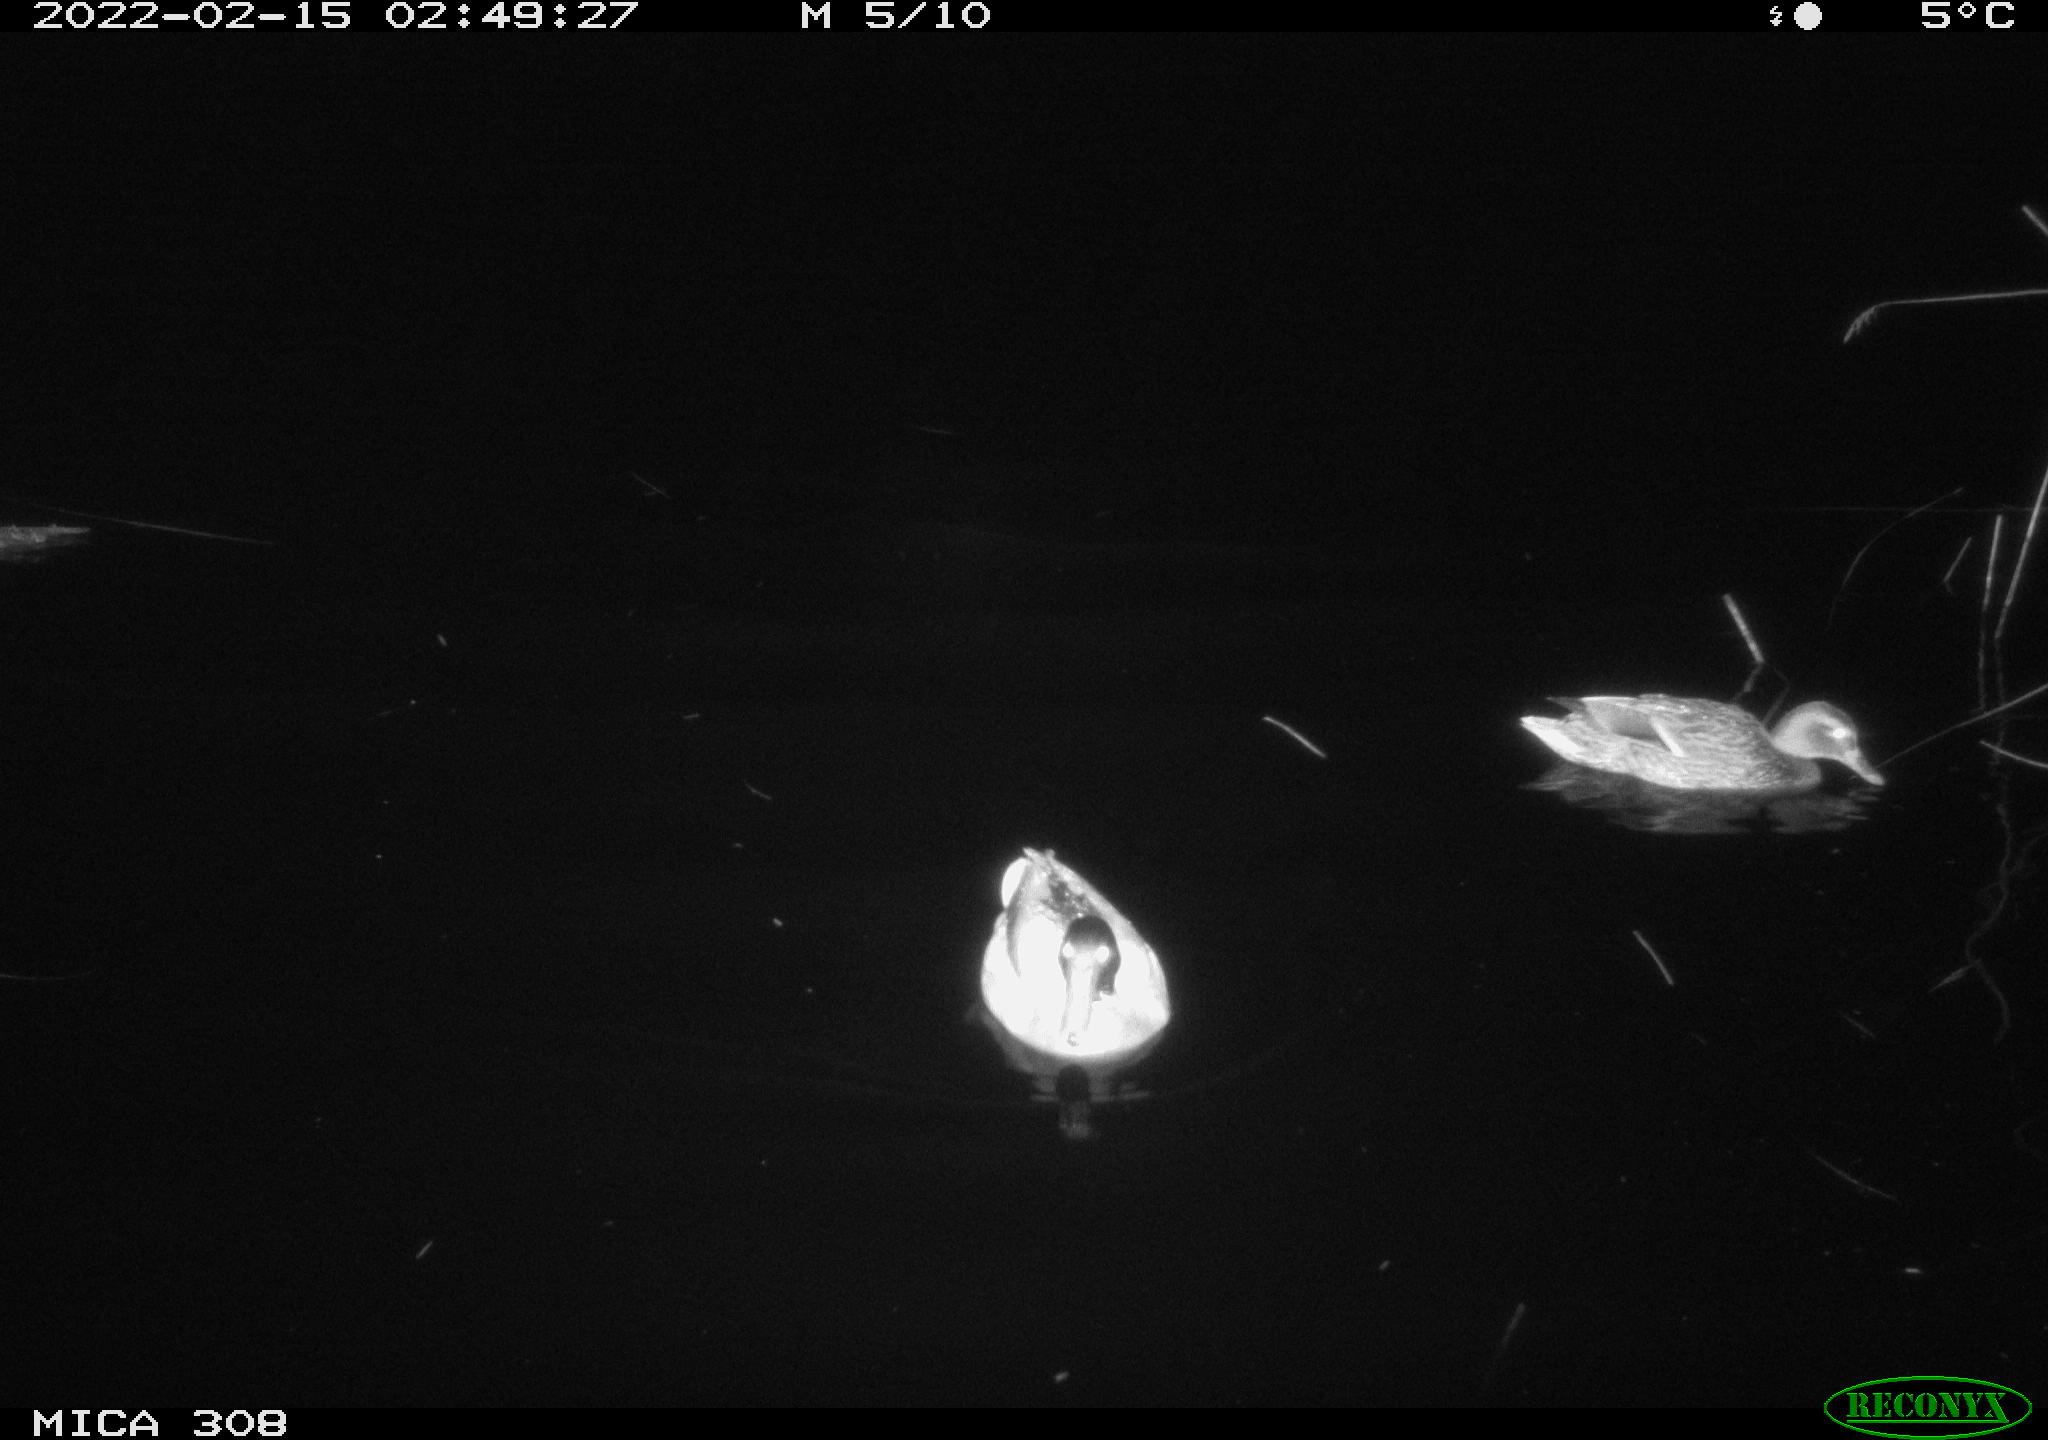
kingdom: Animalia
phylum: Chordata
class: Aves
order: Anseriformes
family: Anatidae
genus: Anas
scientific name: Anas platyrhynchos
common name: Mallard
